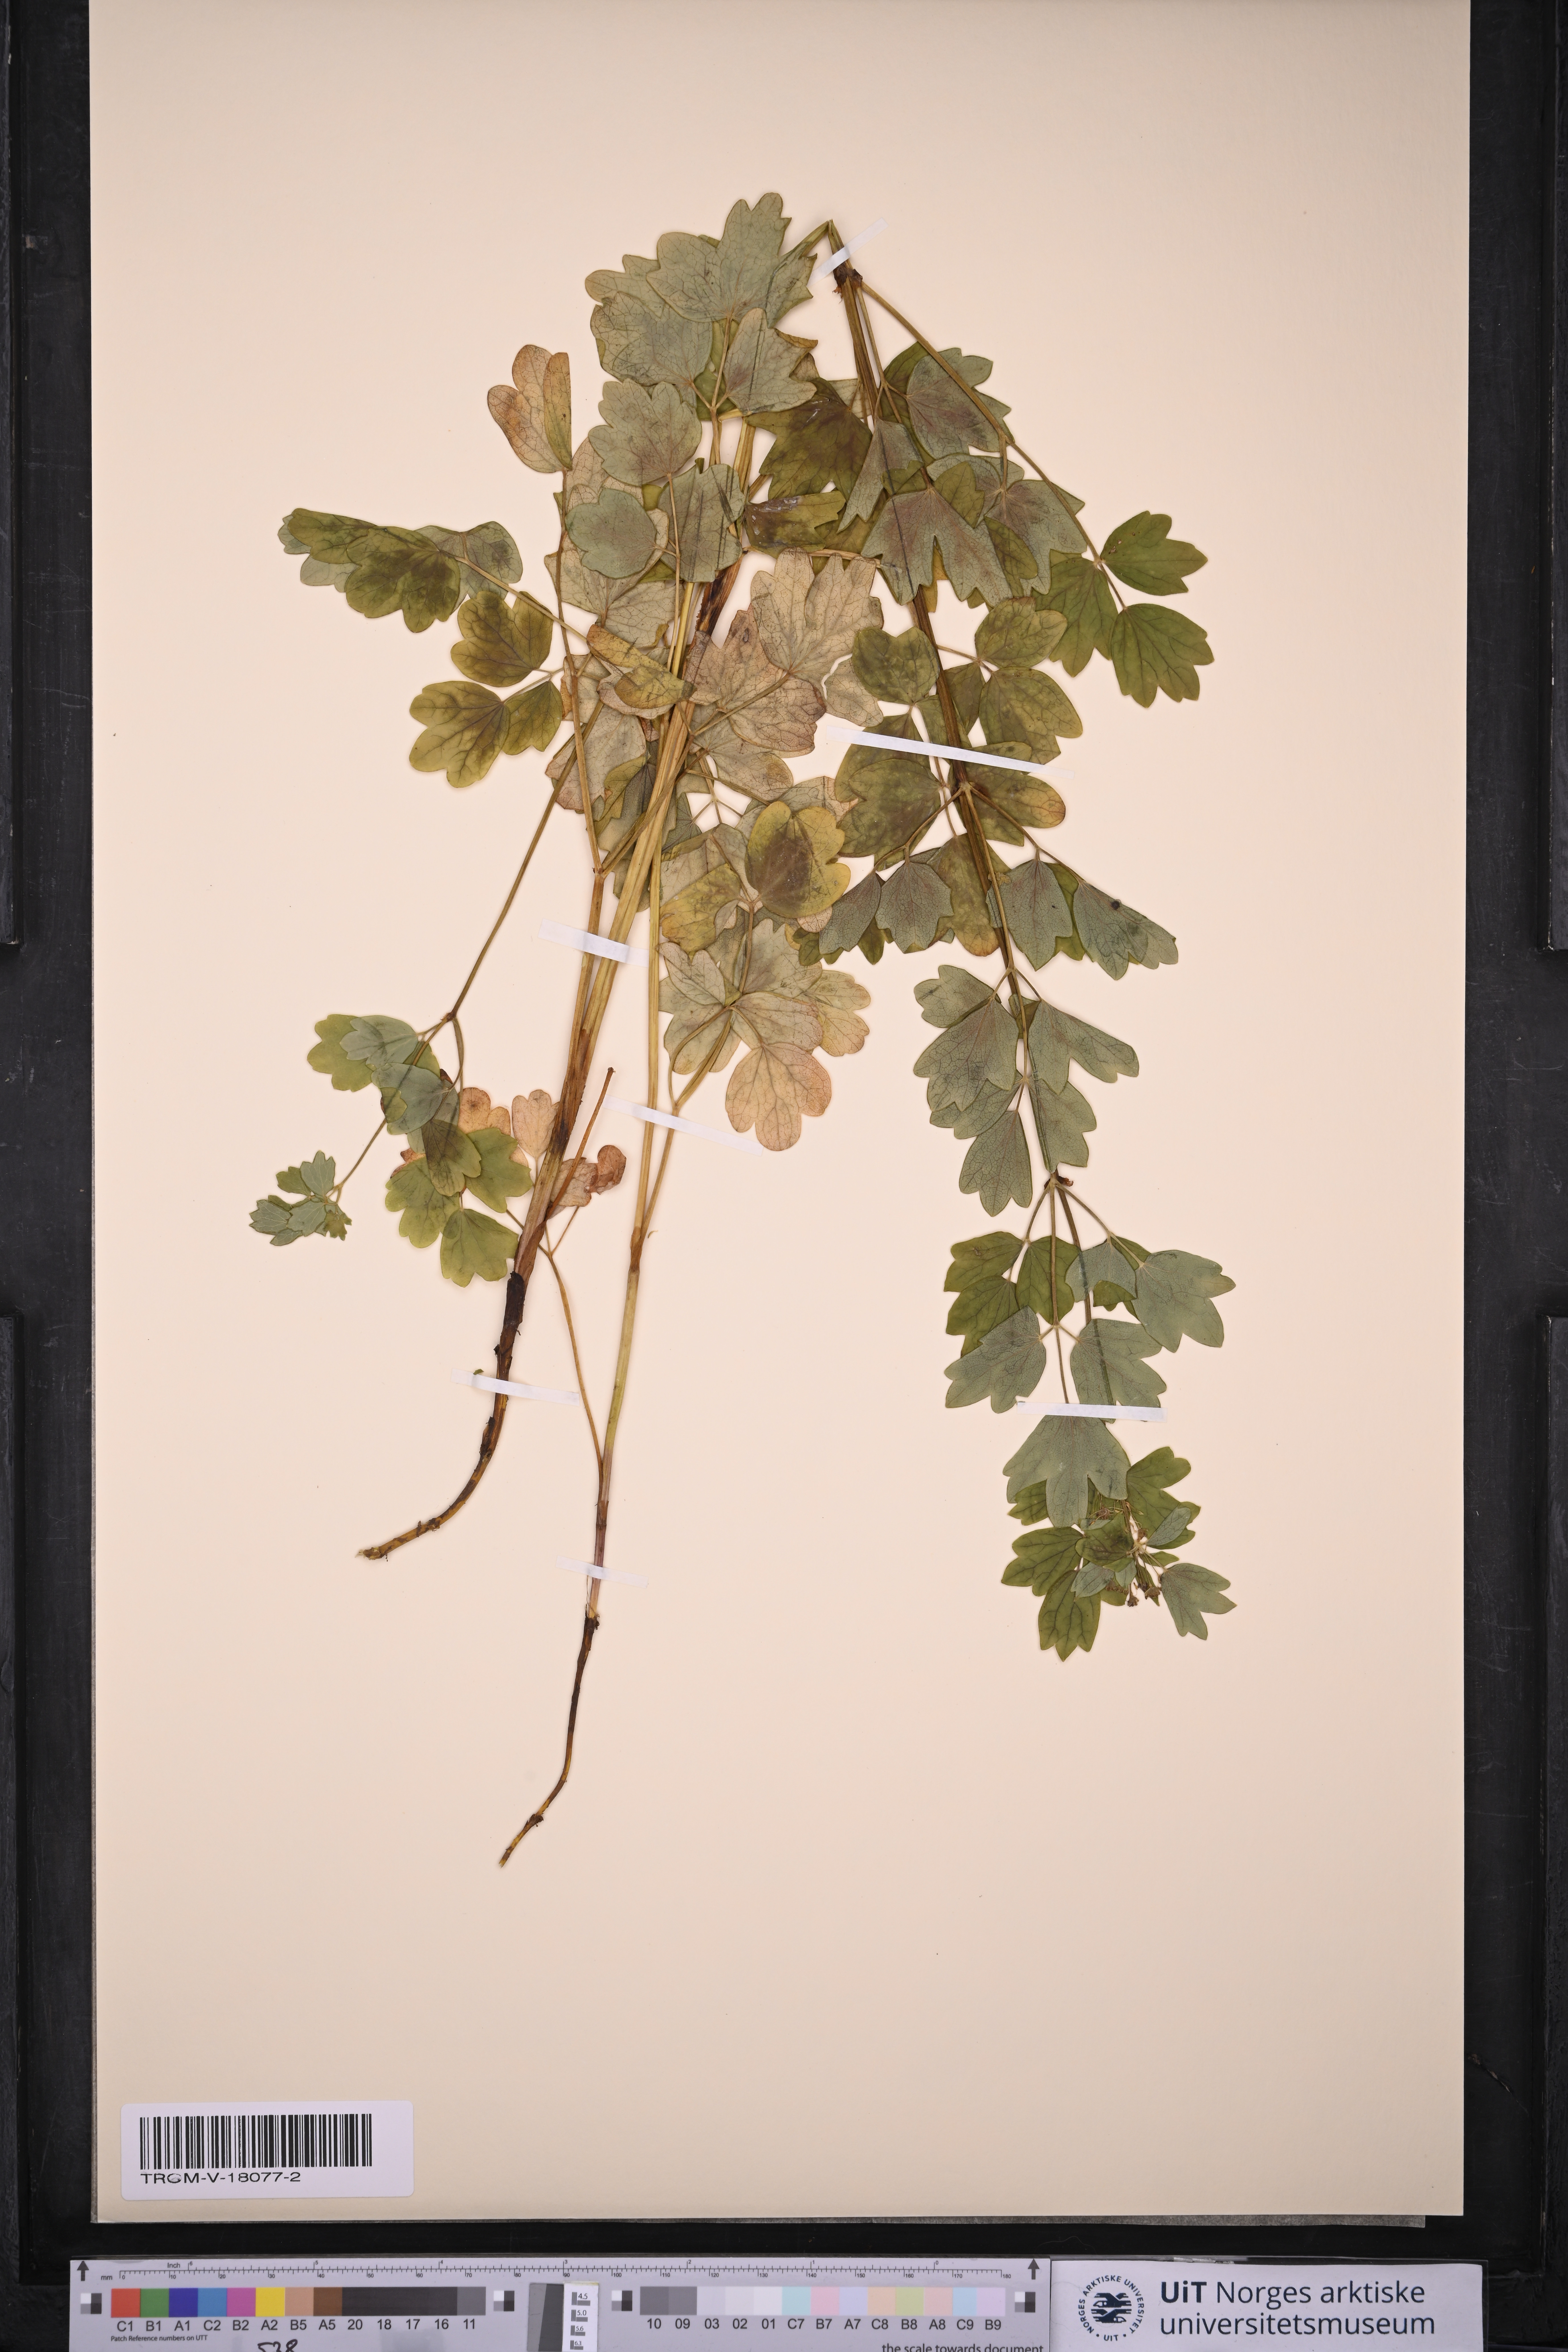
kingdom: Plantae
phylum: Tracheophyta
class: Magnoliopsida
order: Ranunculales
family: Ranunculaceae
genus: Thalictrum
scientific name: Thalictrum flavum
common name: Common meadow-rue
